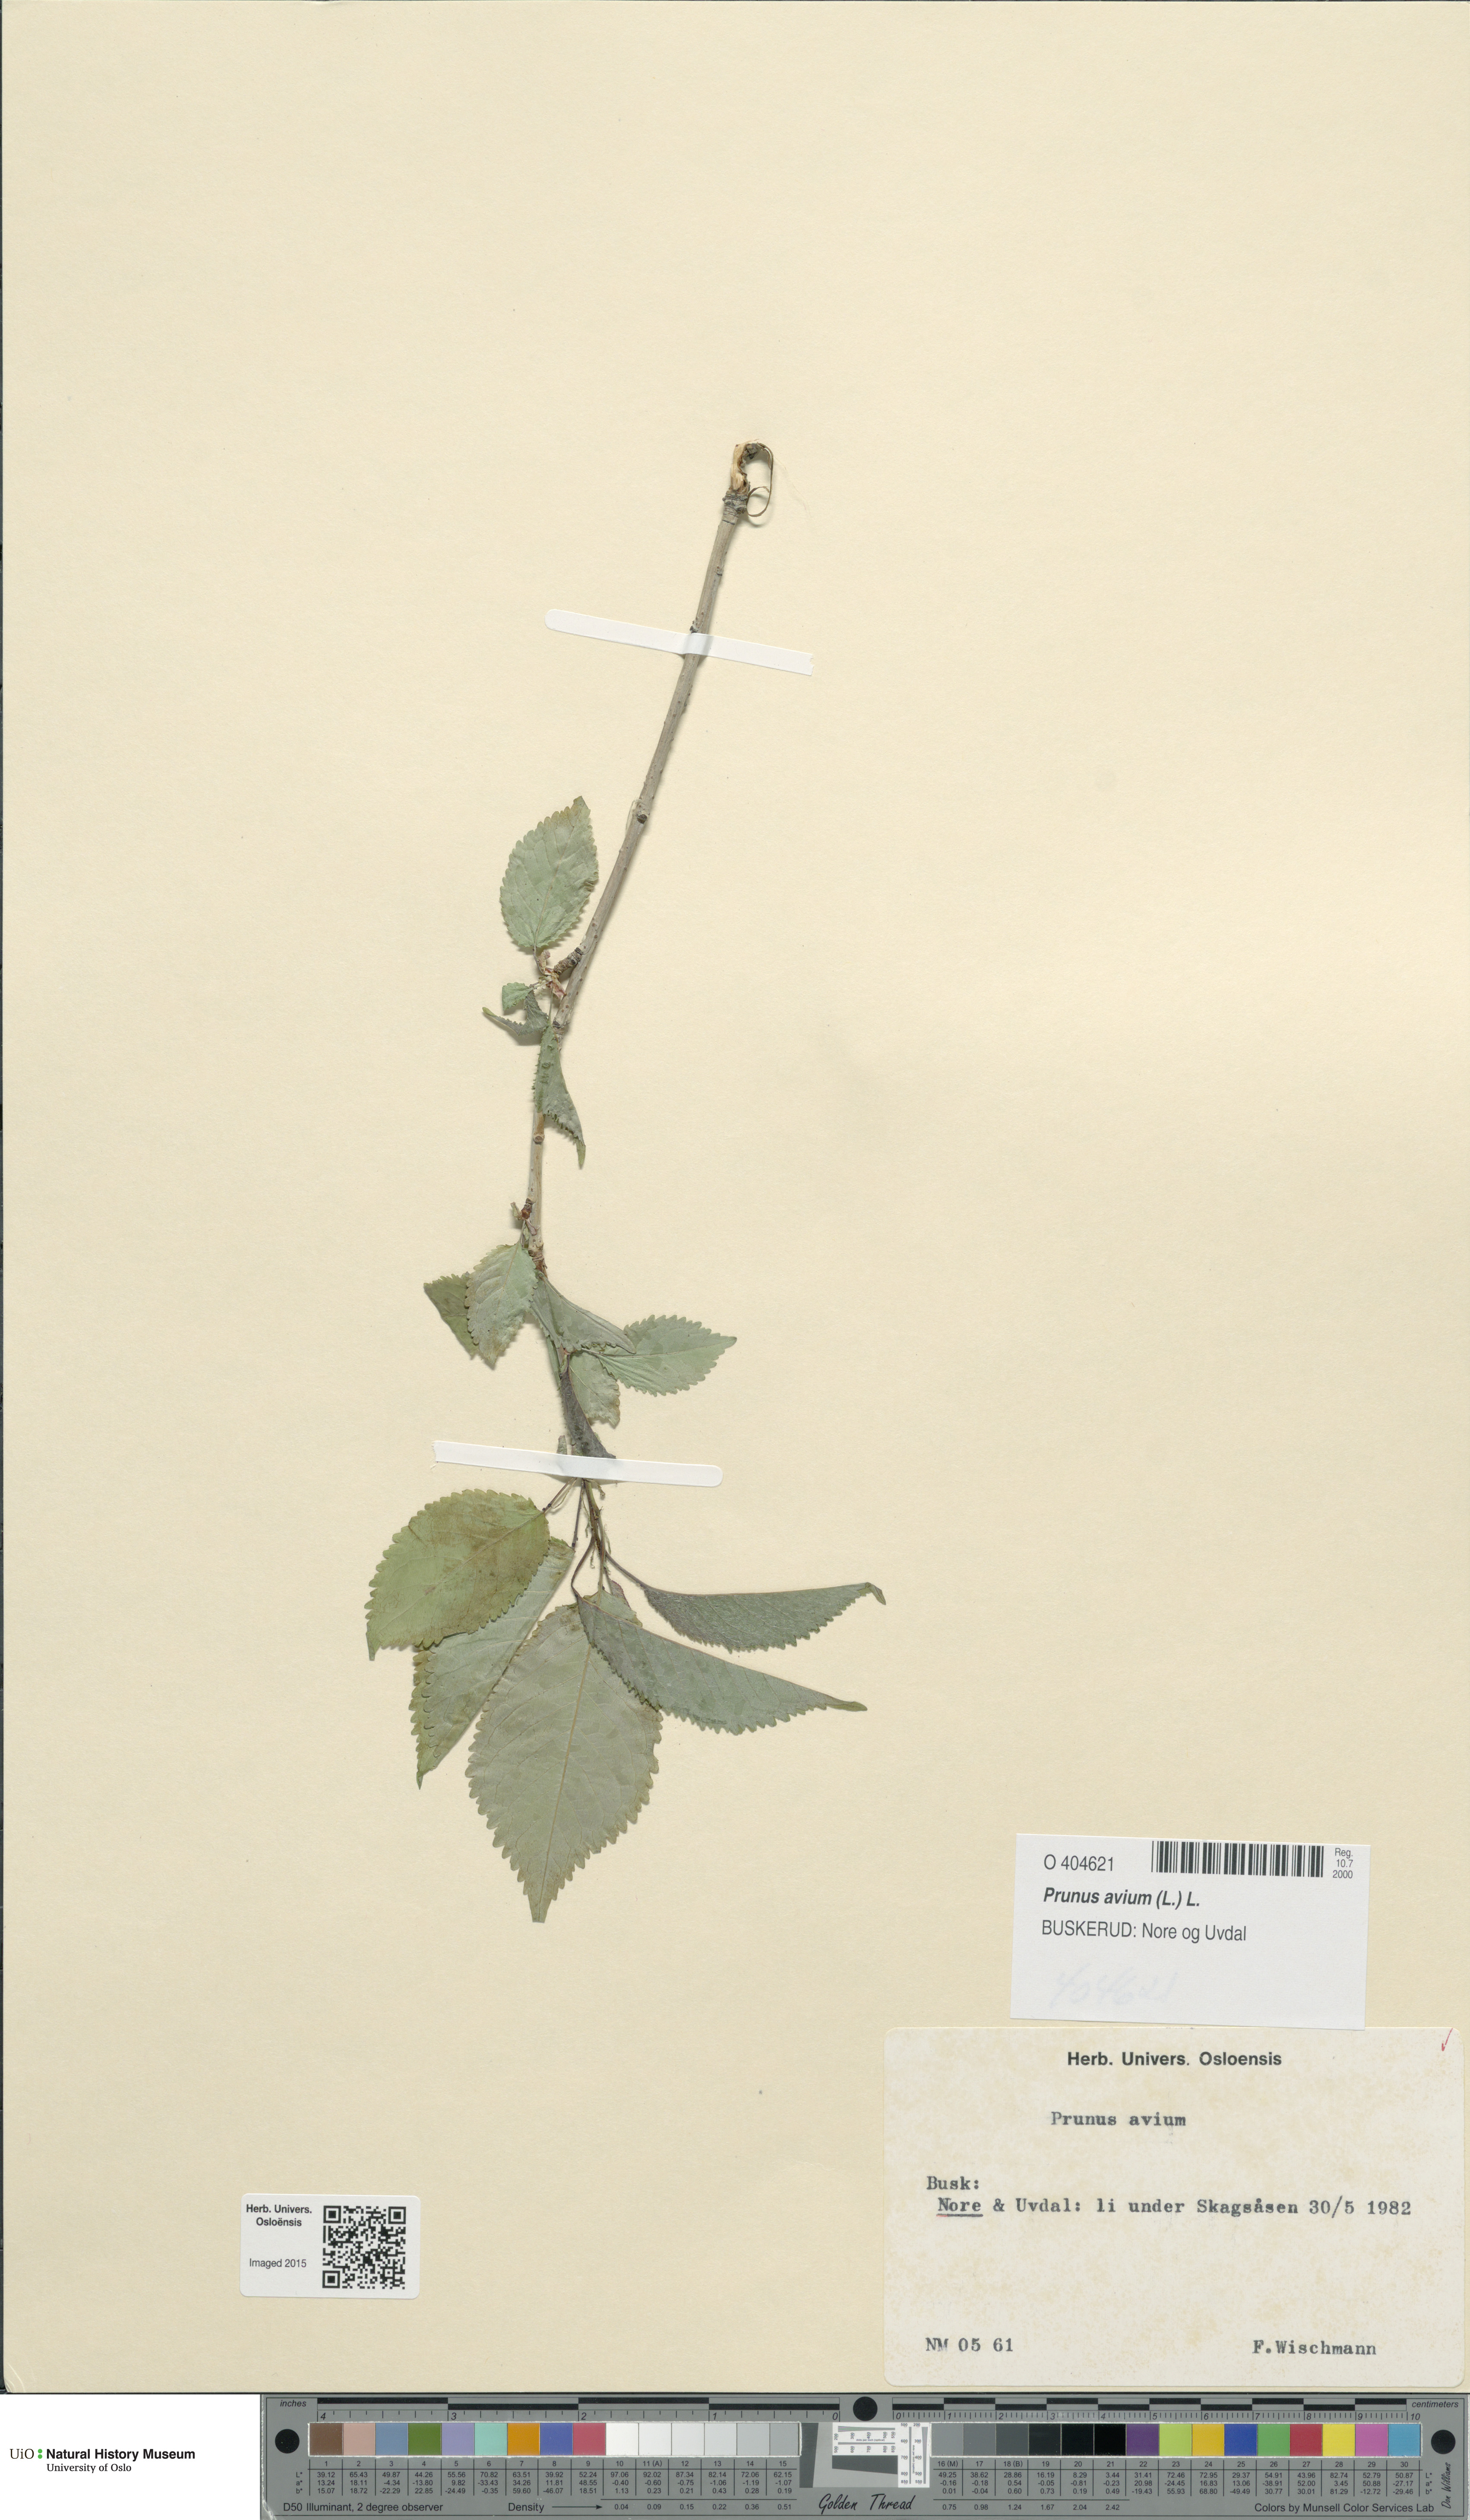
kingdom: Plantae
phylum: Tracheophyta
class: Magnoliopsida
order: Rosales
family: Rosaceae
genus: Prunus
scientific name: Prunus avium
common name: Sweet cherry
